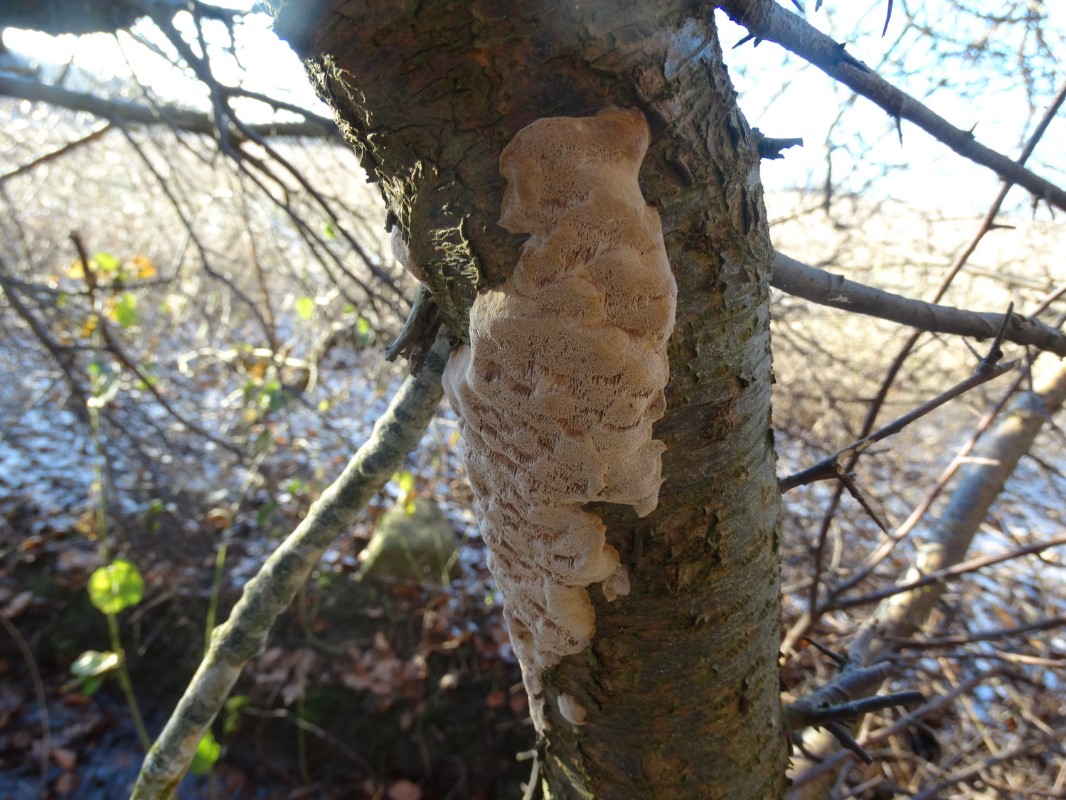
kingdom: Fungi
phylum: Basidiomycota
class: Agaricomycetes
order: Hymenochaetales
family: Hymenochaetaceae
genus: Phellinus
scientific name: Phellinus pomaceus
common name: blomme-ildporesvamp
